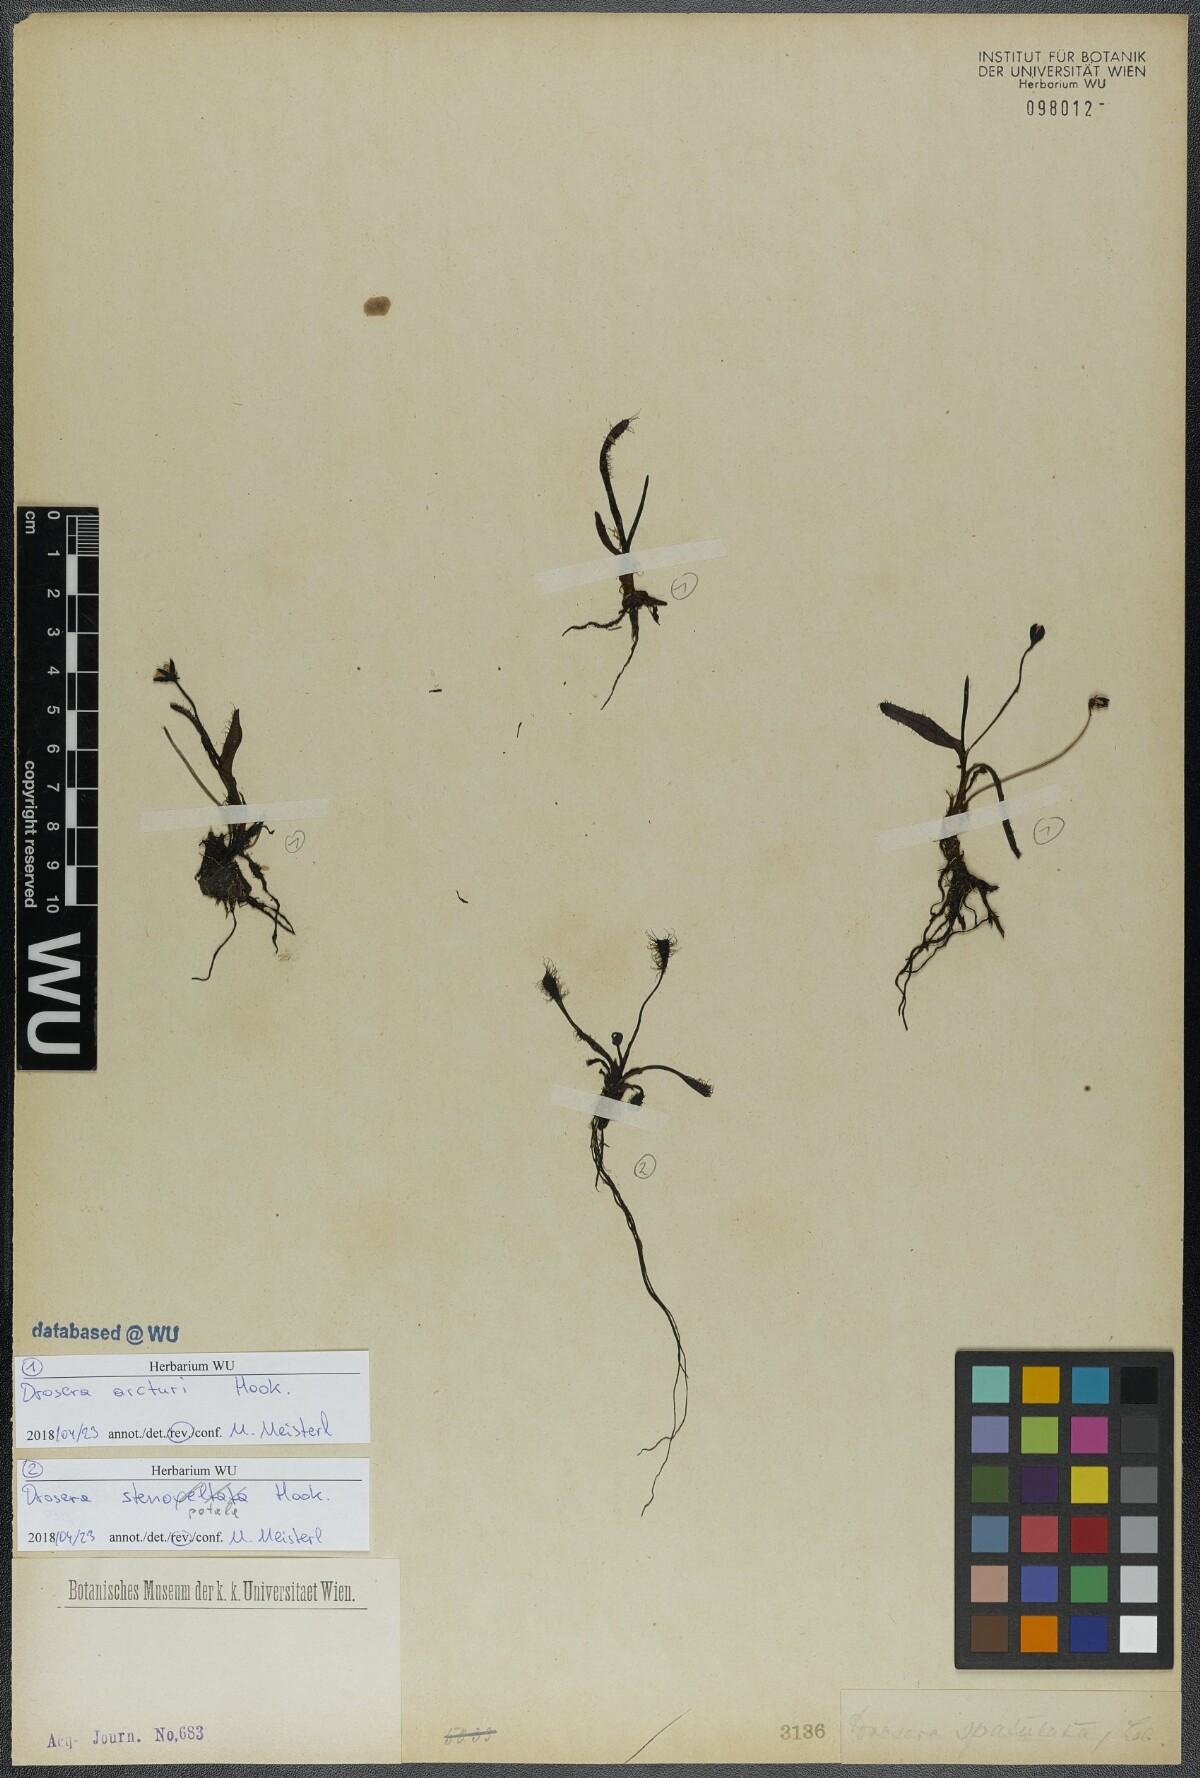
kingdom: Plantae
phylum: Tracheophyta
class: Magnoliopsida
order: Caryophyllales
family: Droseraceae
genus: Drosera
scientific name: Drosera arcturi
